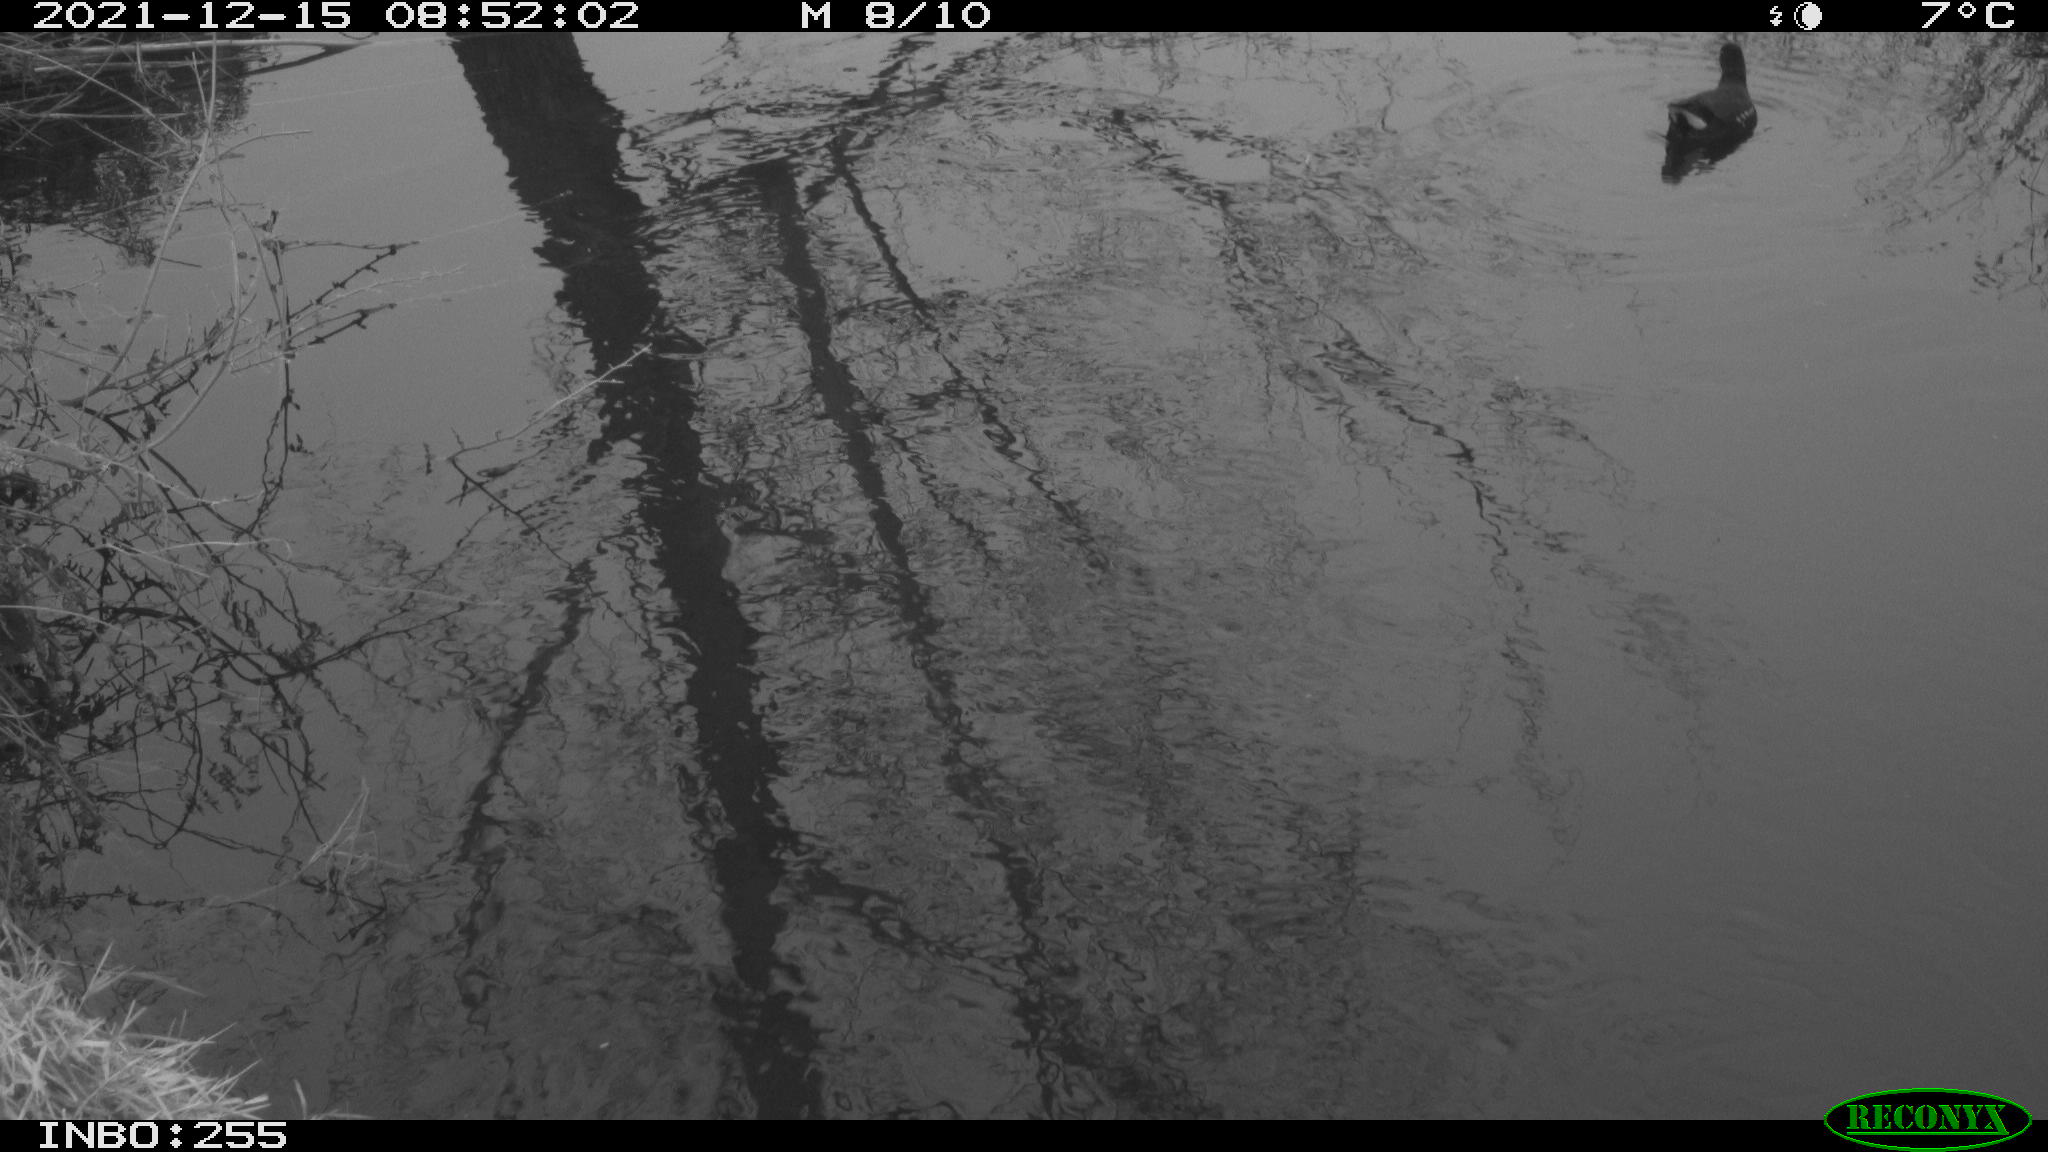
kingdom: Animalia
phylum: Chordata
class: Aves
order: Gruiformes
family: Rallidae
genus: Gallinula
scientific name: Gallinula chloropus
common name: Common moorhen
